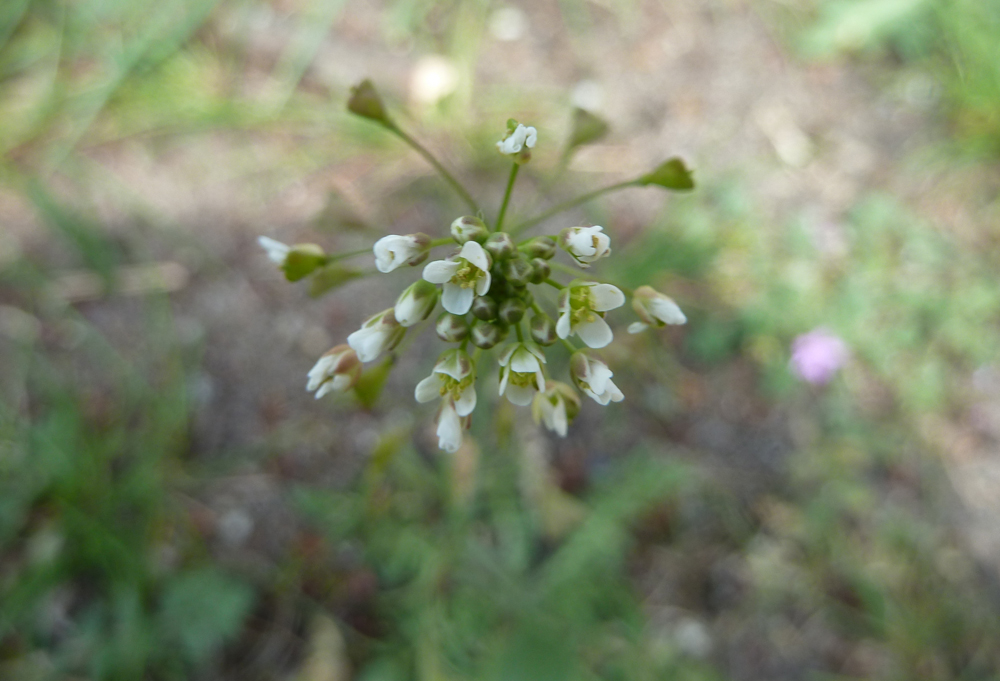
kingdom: Plantae
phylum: Tracheophyta
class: Magnoliopsida
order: Brassicales
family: Brassicaceae
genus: Capsella
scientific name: Capsella bursa-pastoris
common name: Shepherd's purse
